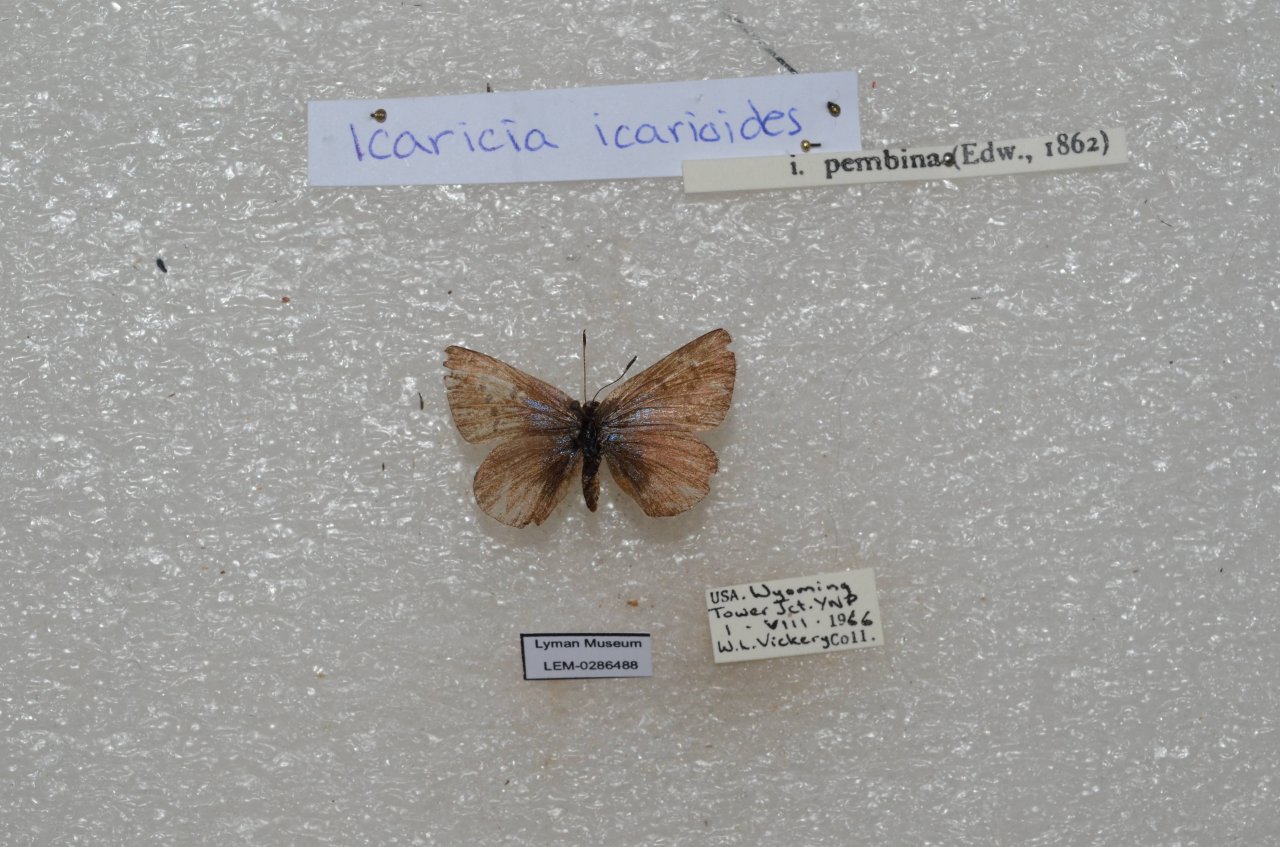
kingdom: Animalia
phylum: Arthropoda
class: Insecta
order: Lepidoptera
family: Lycaenidae
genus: Icaricia
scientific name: Icaricia icarioides
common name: Boisduval's Blue
